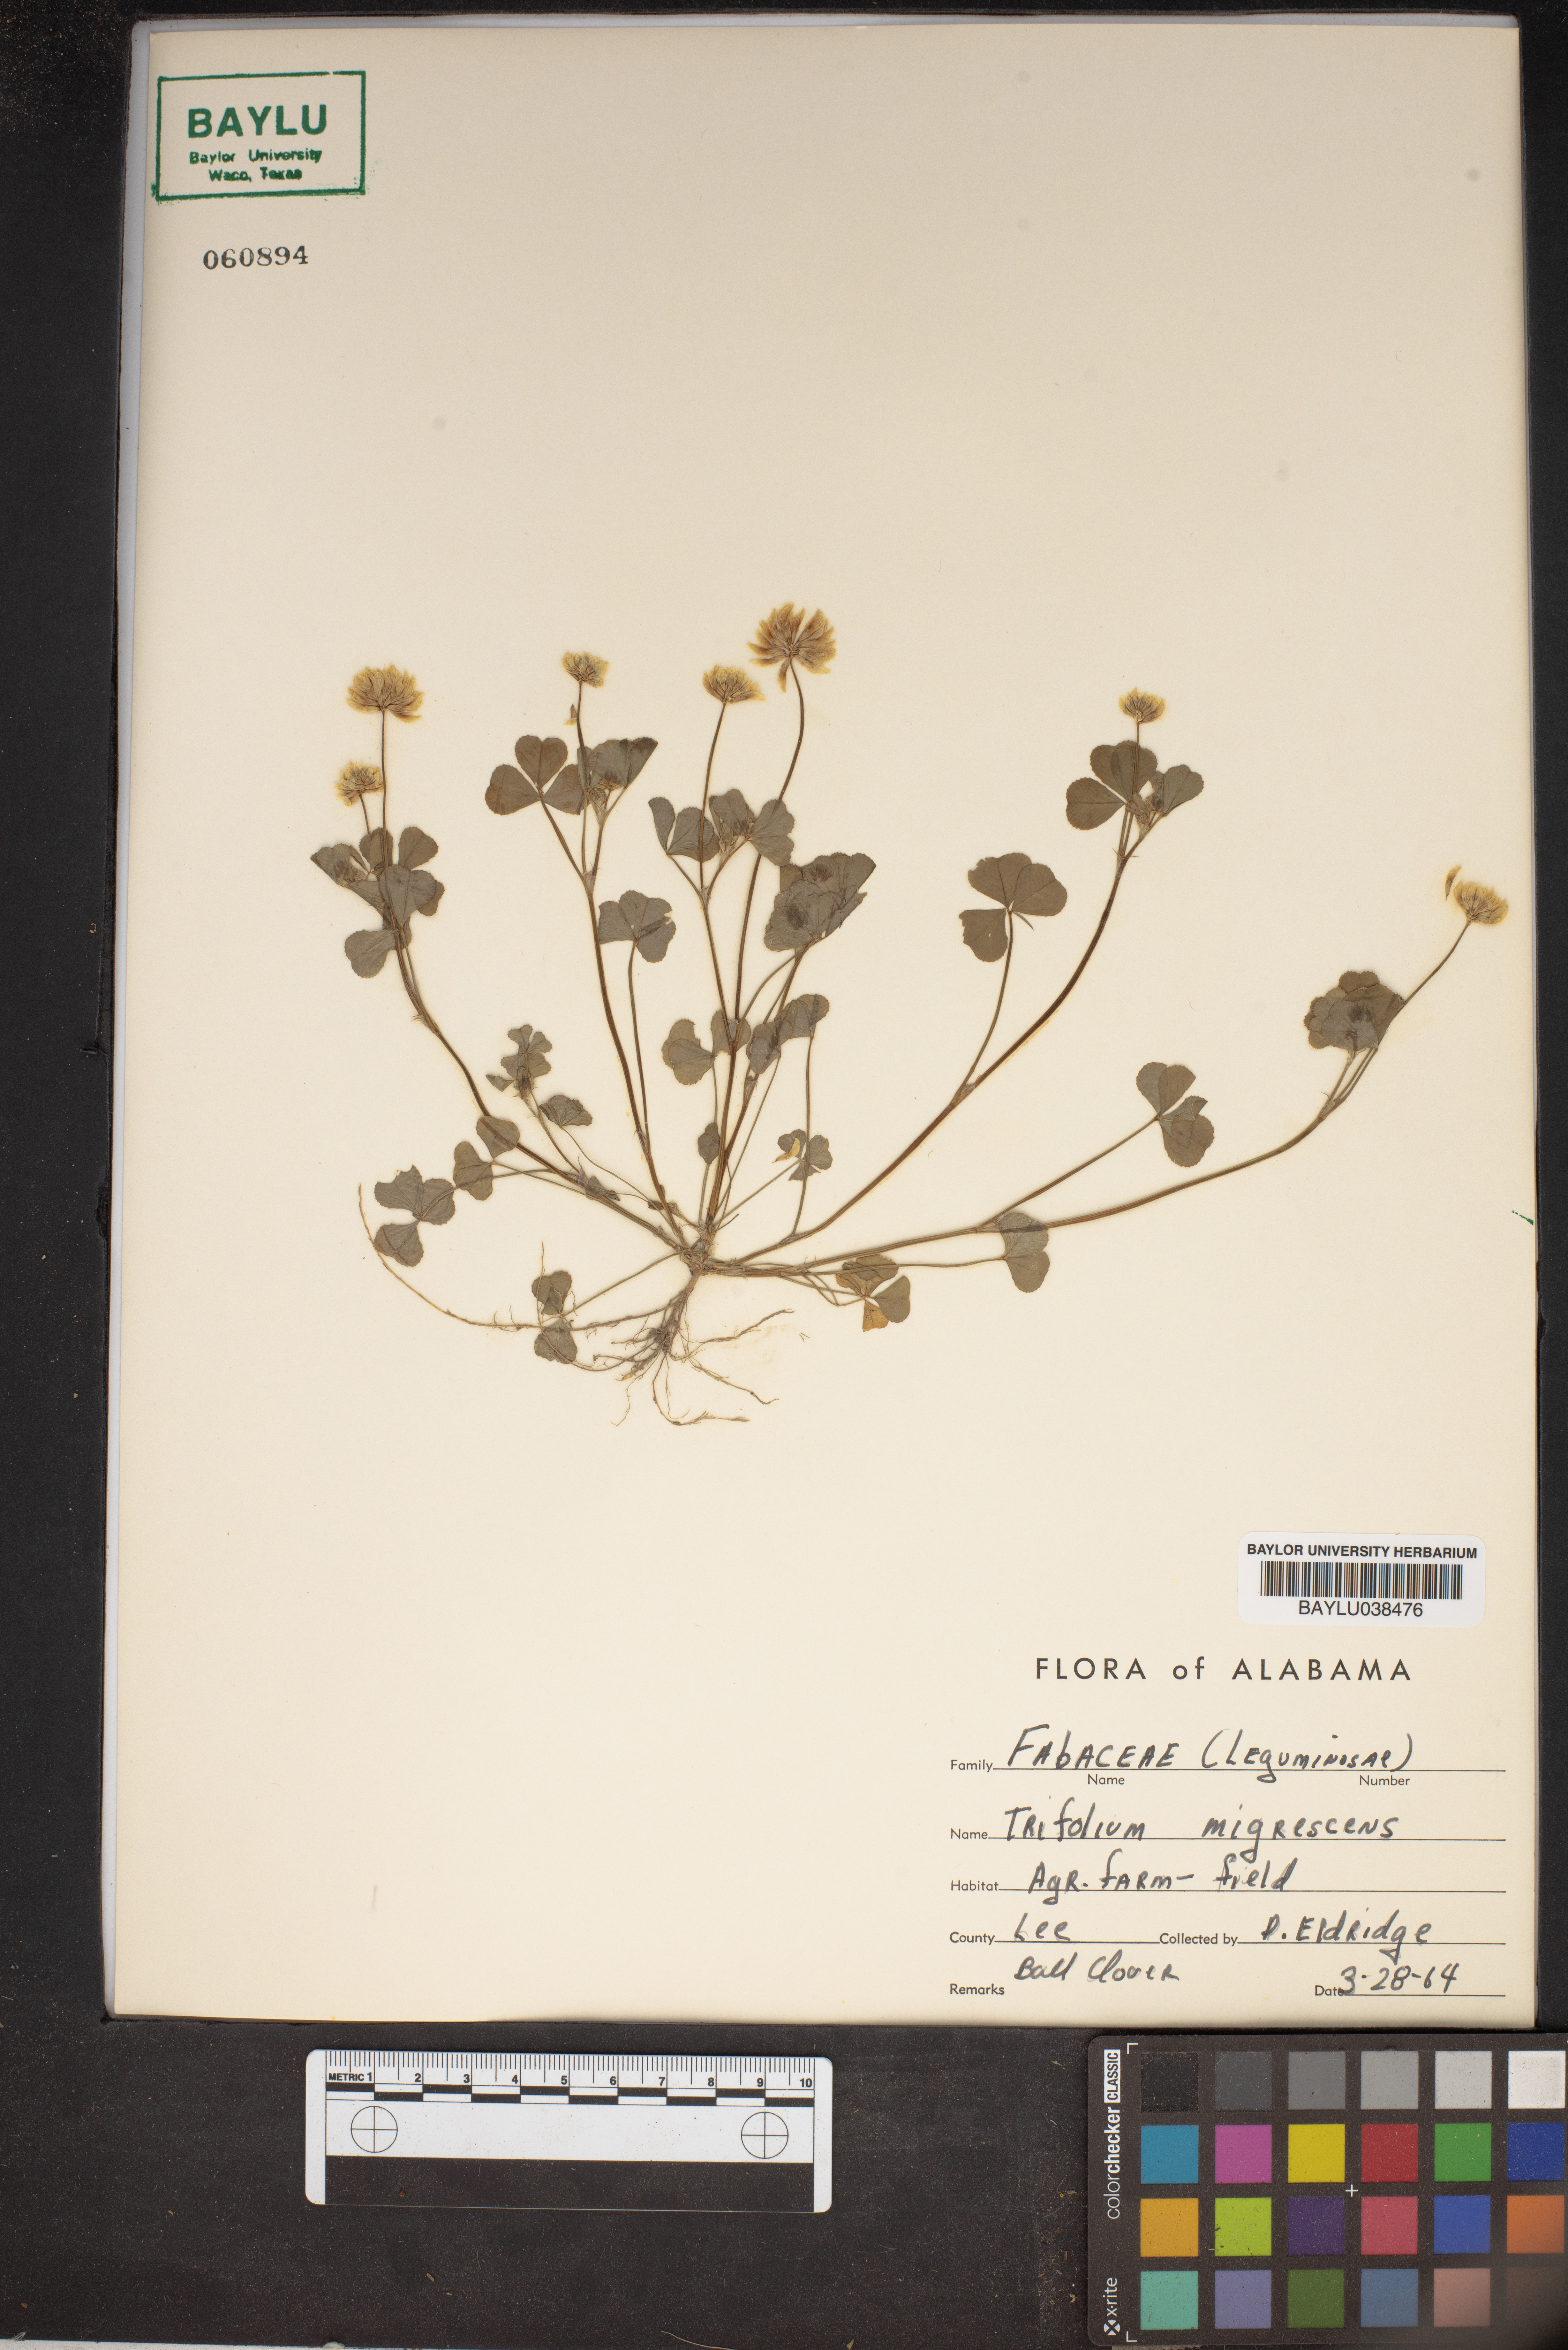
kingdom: Plantae
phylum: Tracheophyta
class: Magnoliopsida
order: Fabales
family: Fabaceae
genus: Trifolium
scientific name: Trifolium nigrescens
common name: Small white clover
